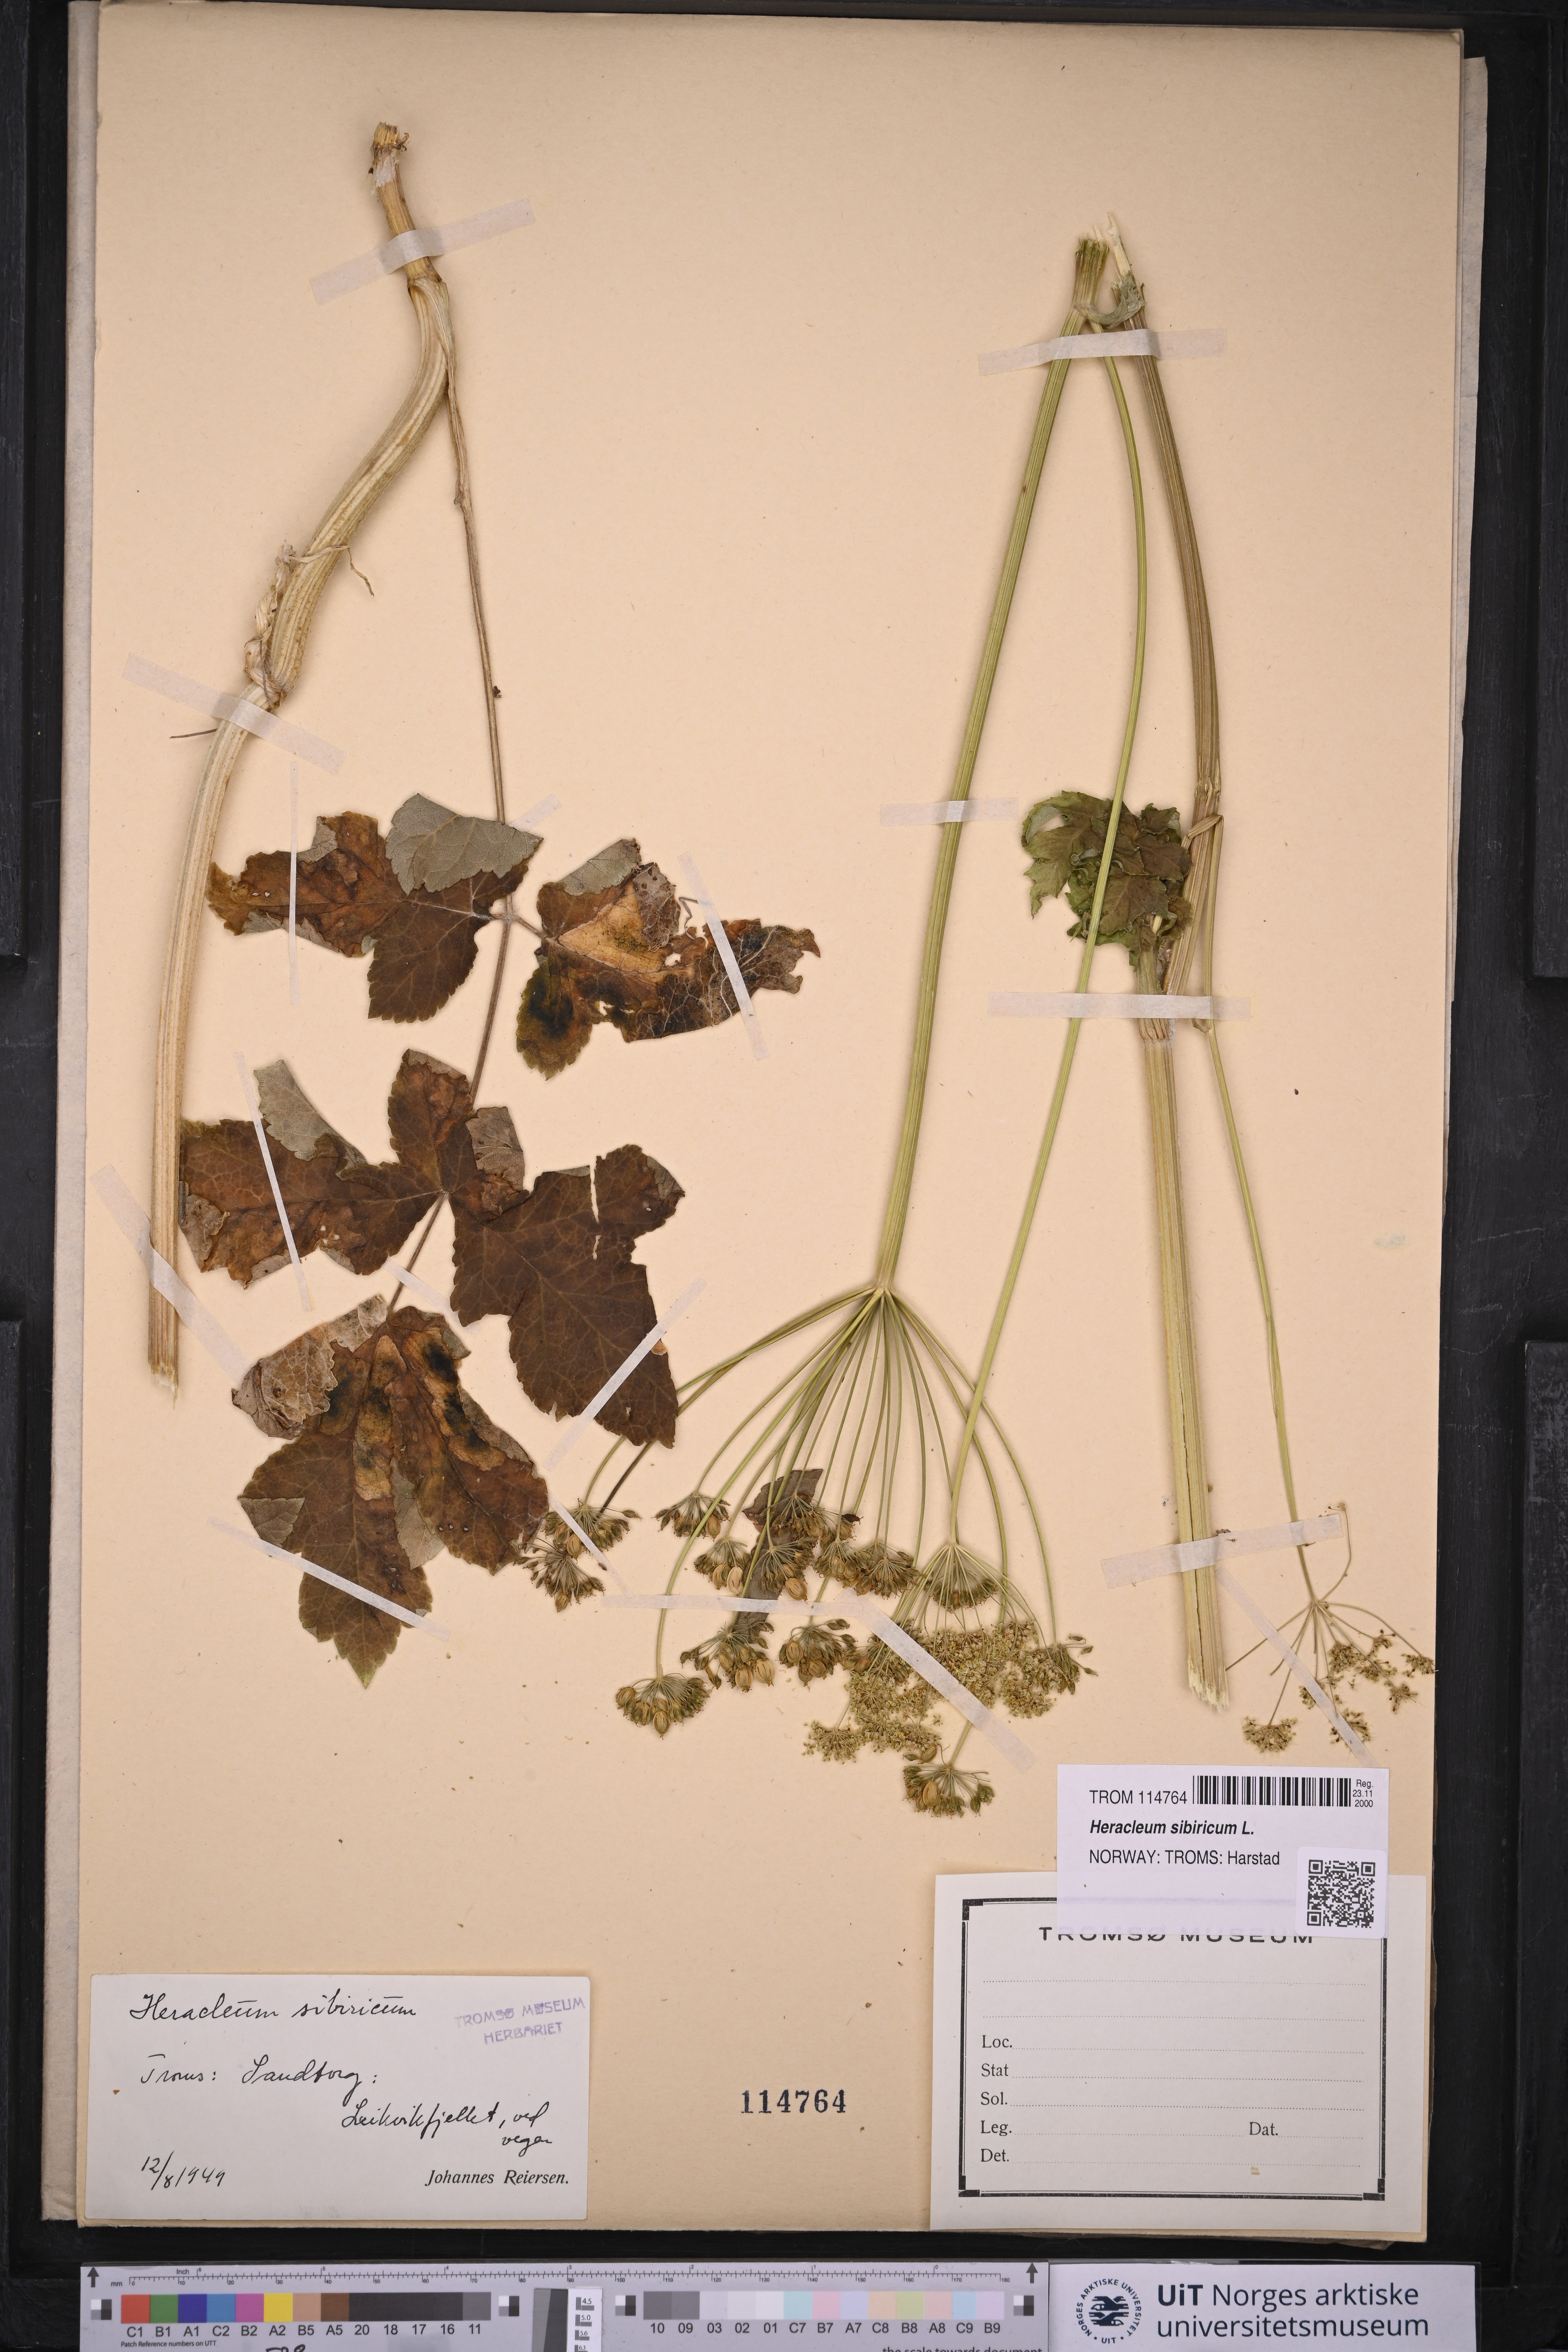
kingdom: Plantae
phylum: Tracheophyta
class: Magnoliopsida
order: Apiales
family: Apiaceae
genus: Heracleum
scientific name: Heracleum sphondylium
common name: Hogweed
